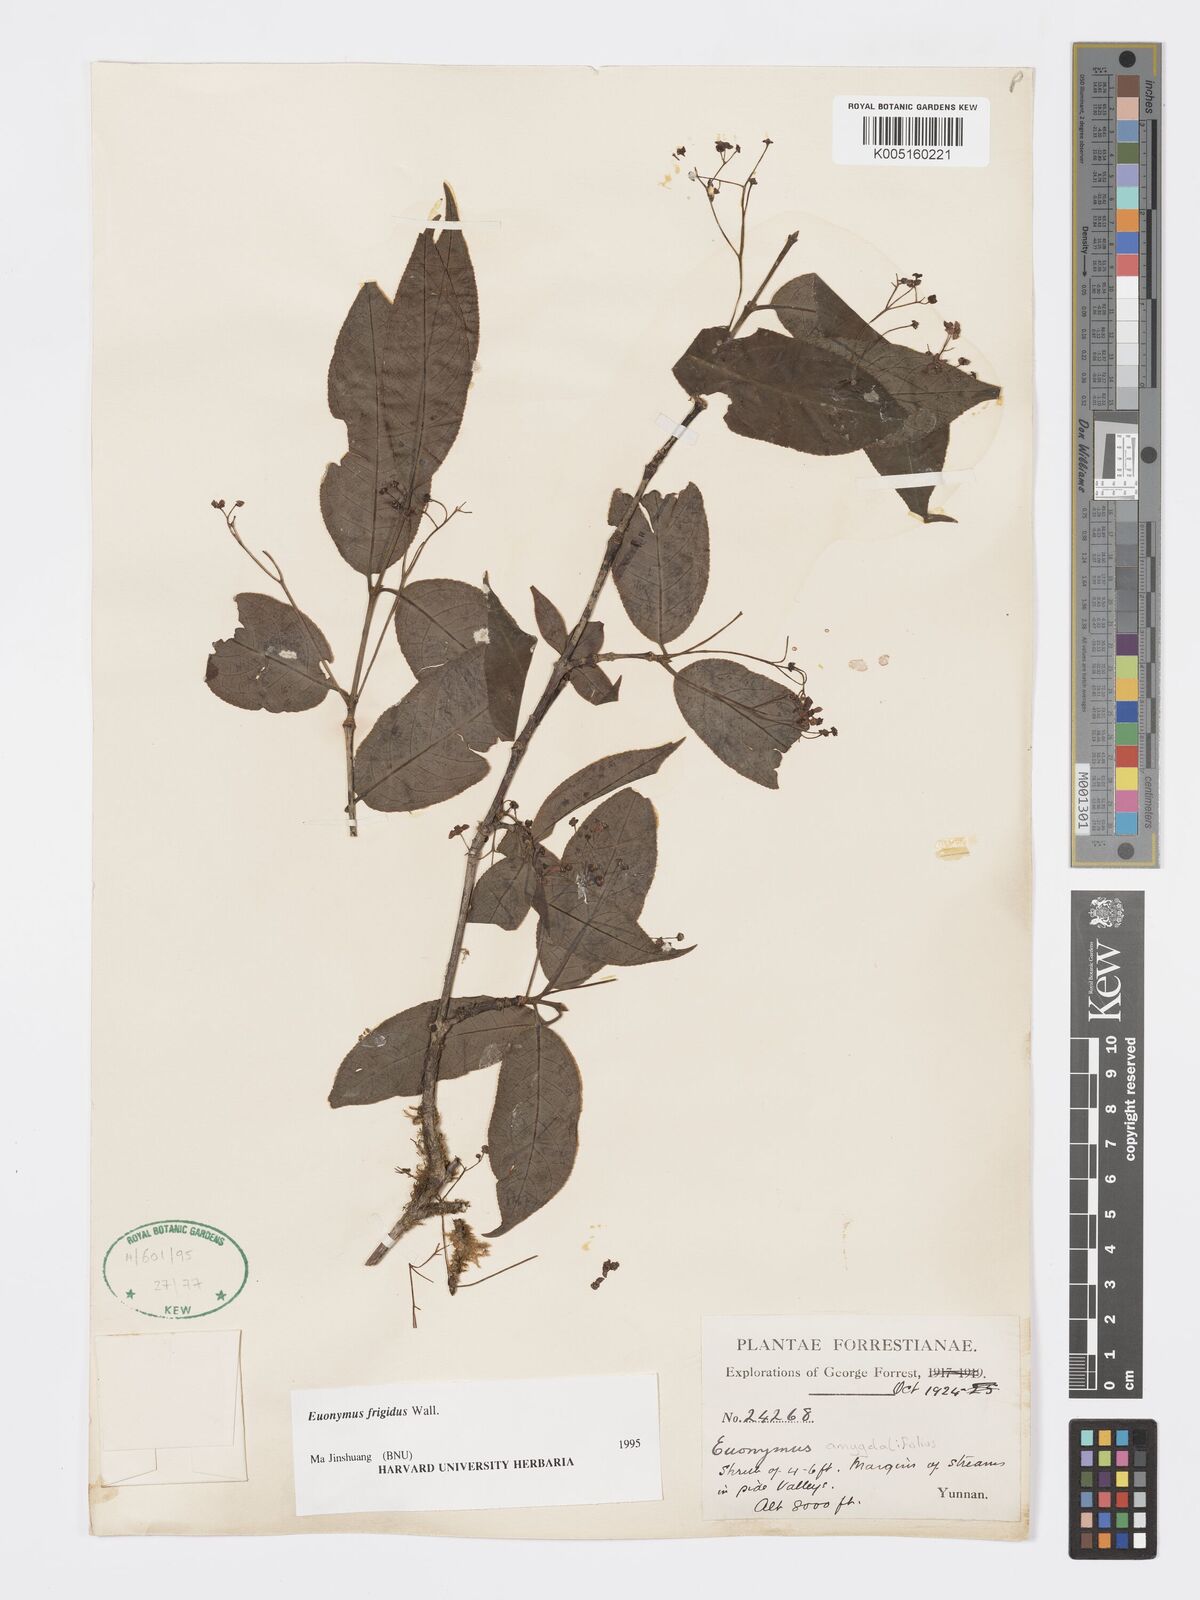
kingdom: Plantae
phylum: Tracheophyta
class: Magnoliopsida
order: Celastrales
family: Celastraceae
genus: Euonymus
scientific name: Euonymus frigidus
